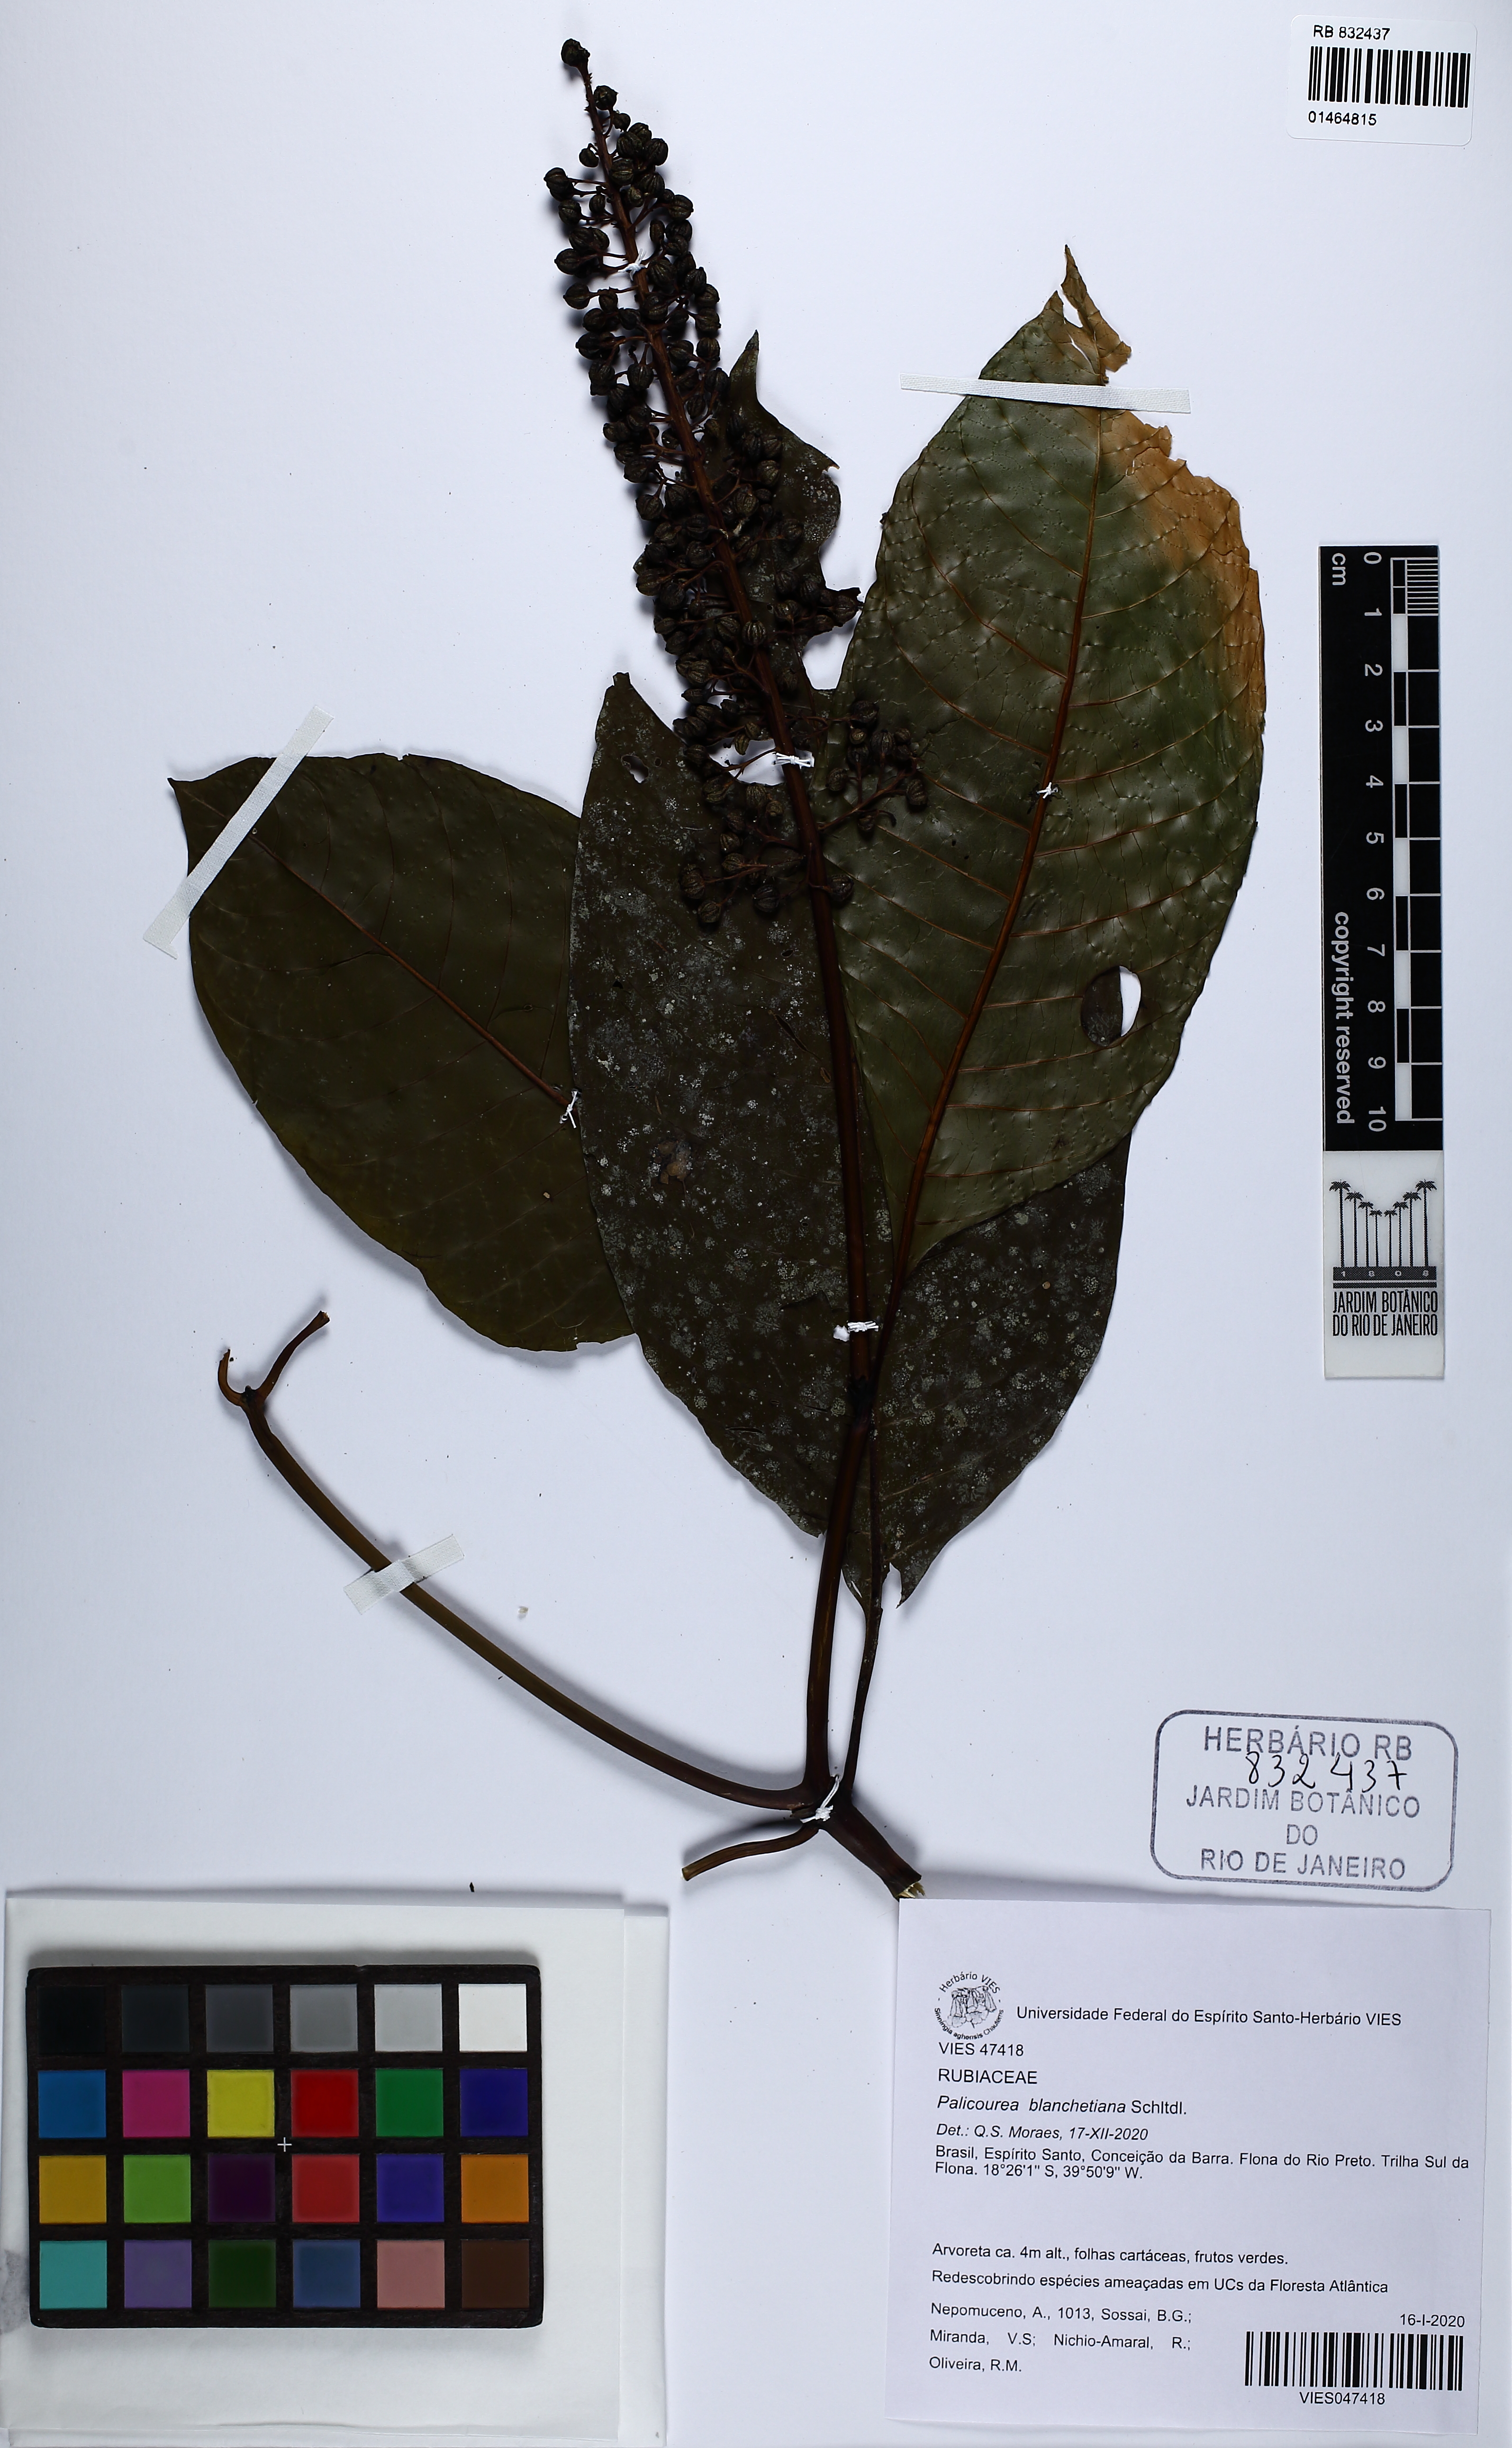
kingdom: Plantae
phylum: Tracheophyta
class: Magnoliopsida
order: Gentianales
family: Rubiaceae
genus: Palicourea
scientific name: Palicourea blanchetiana
